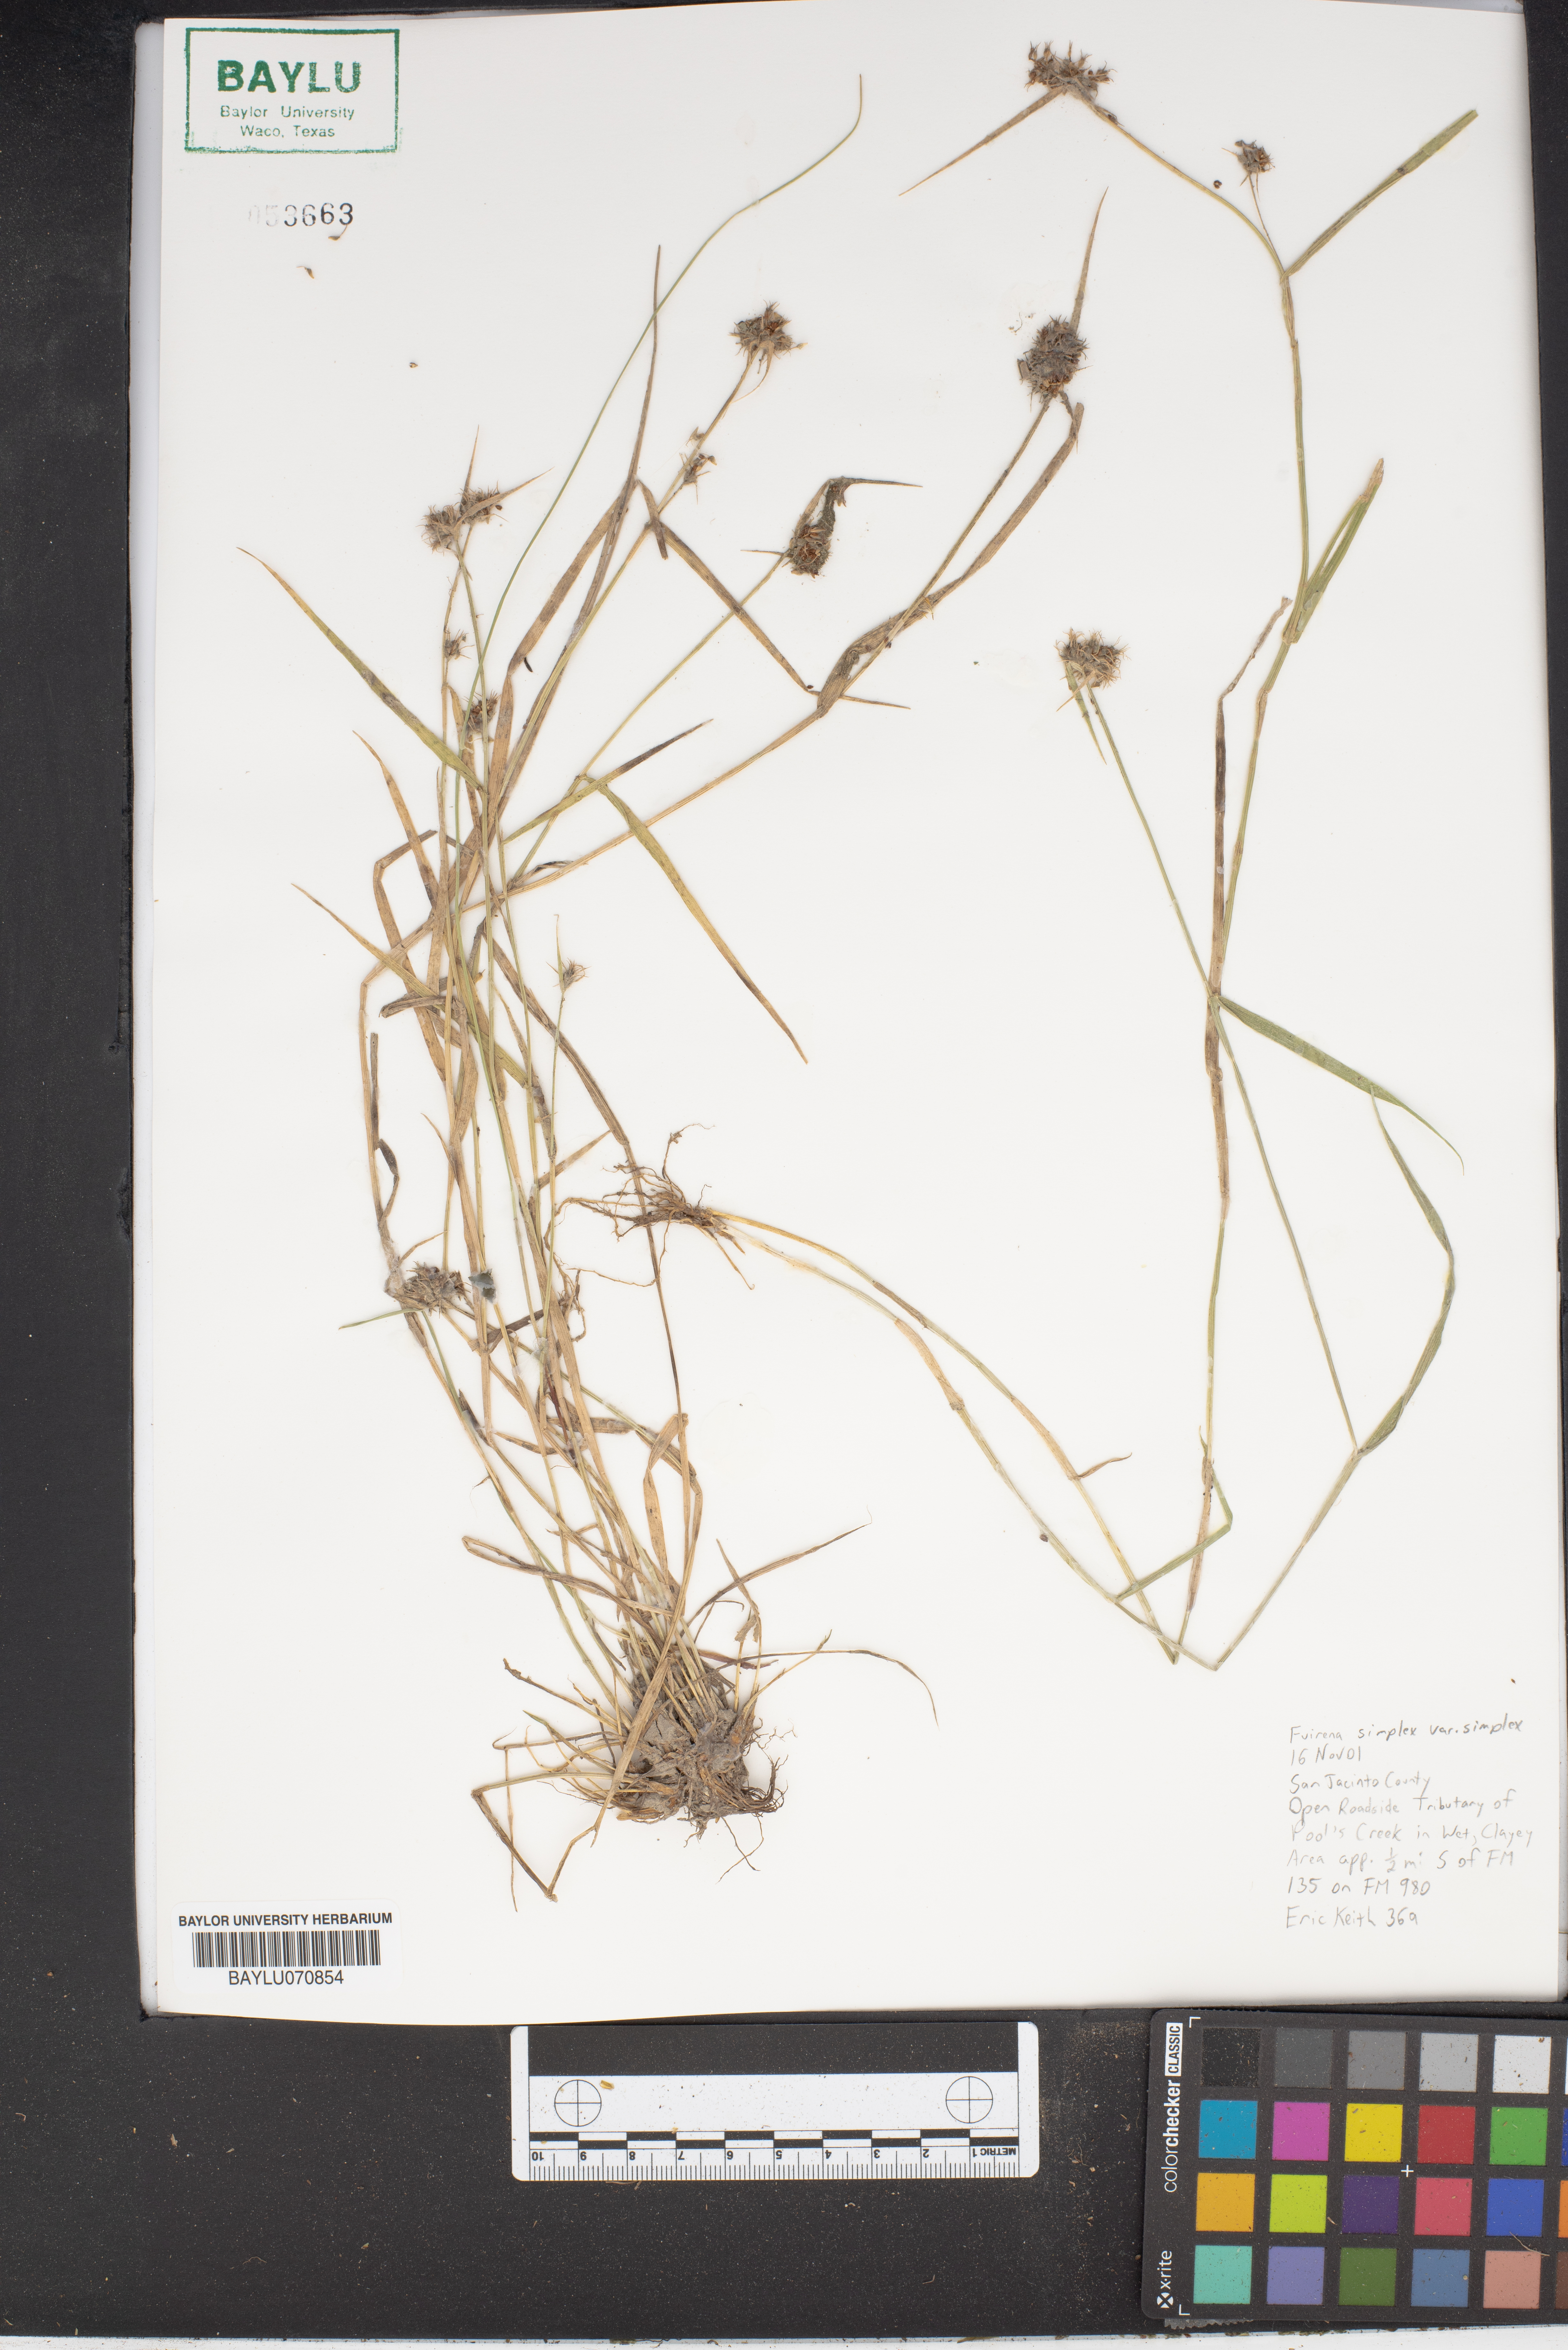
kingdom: Plantae
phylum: Tracheophyta
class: Liliopsida
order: Poales
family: Cyperaceae
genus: Fuirena
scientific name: Fuirena simplex
